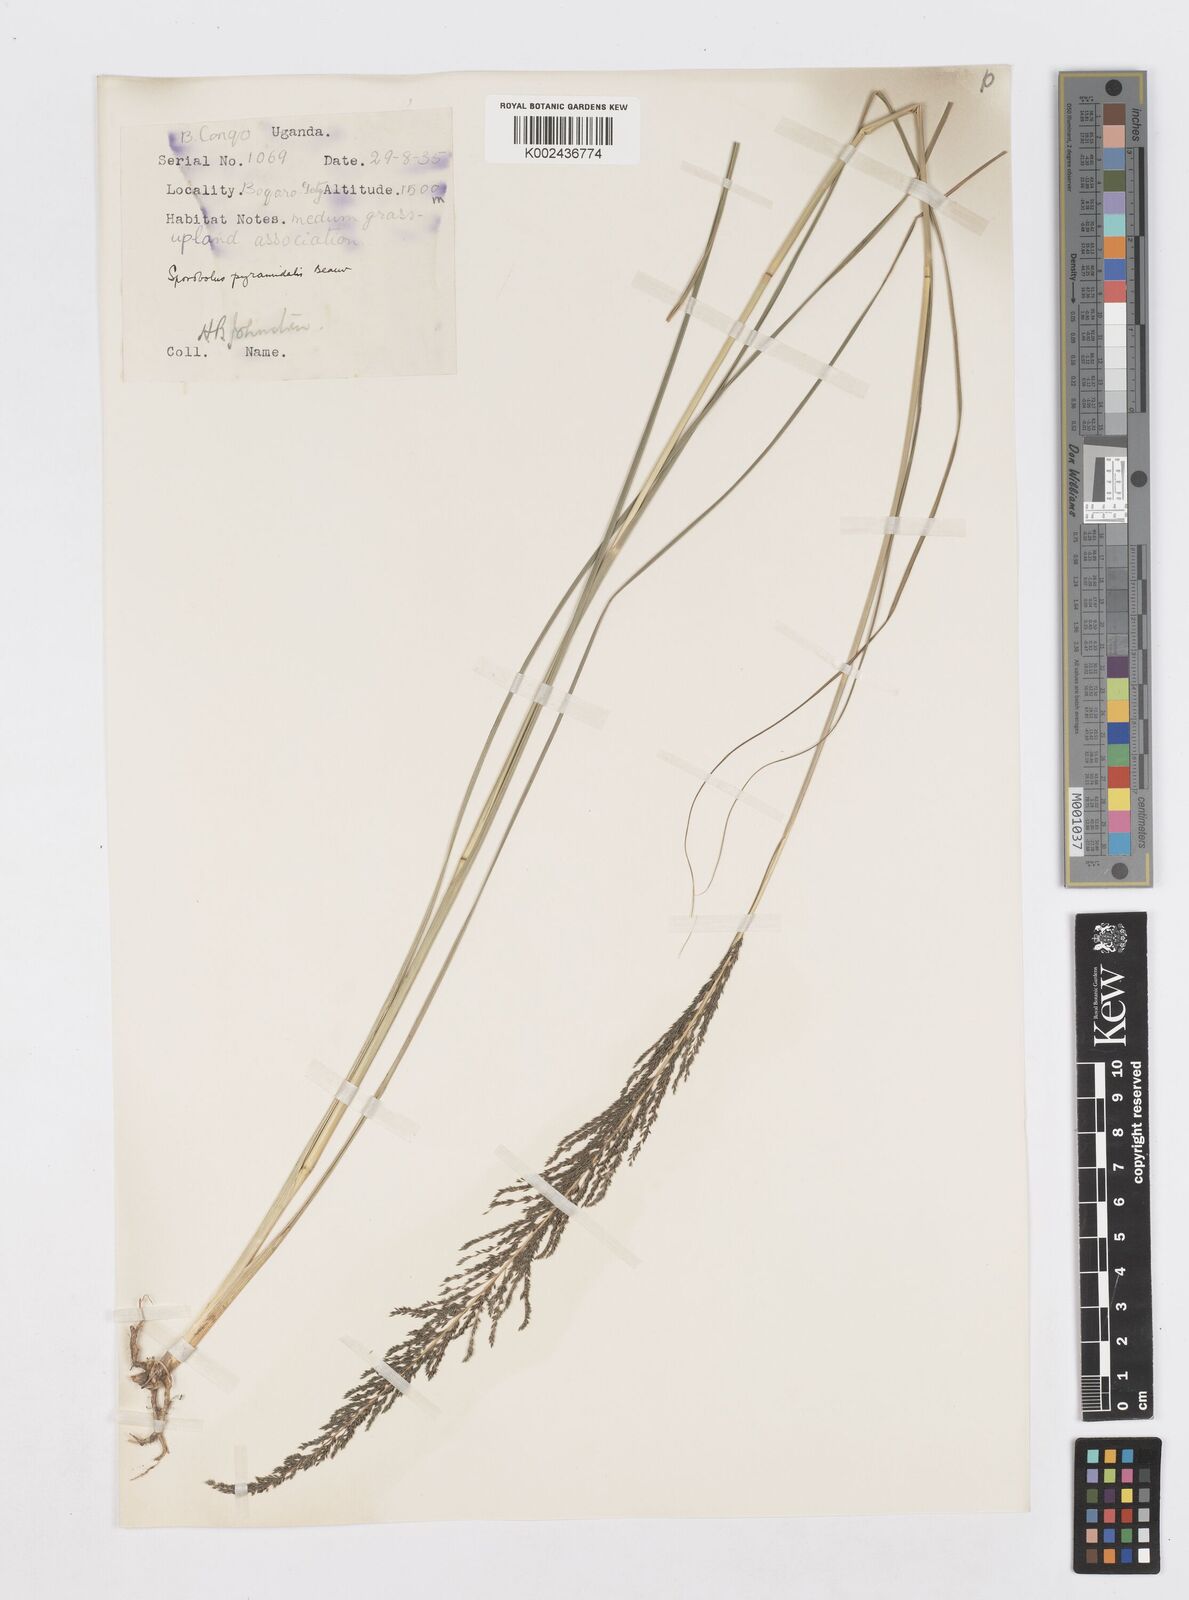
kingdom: Plantae
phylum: Tracheophyta
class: Liliopsida
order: Poales
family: Poaceae
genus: Sporobolus
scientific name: Sporobolus pyramidalis
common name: West indian dropseed
